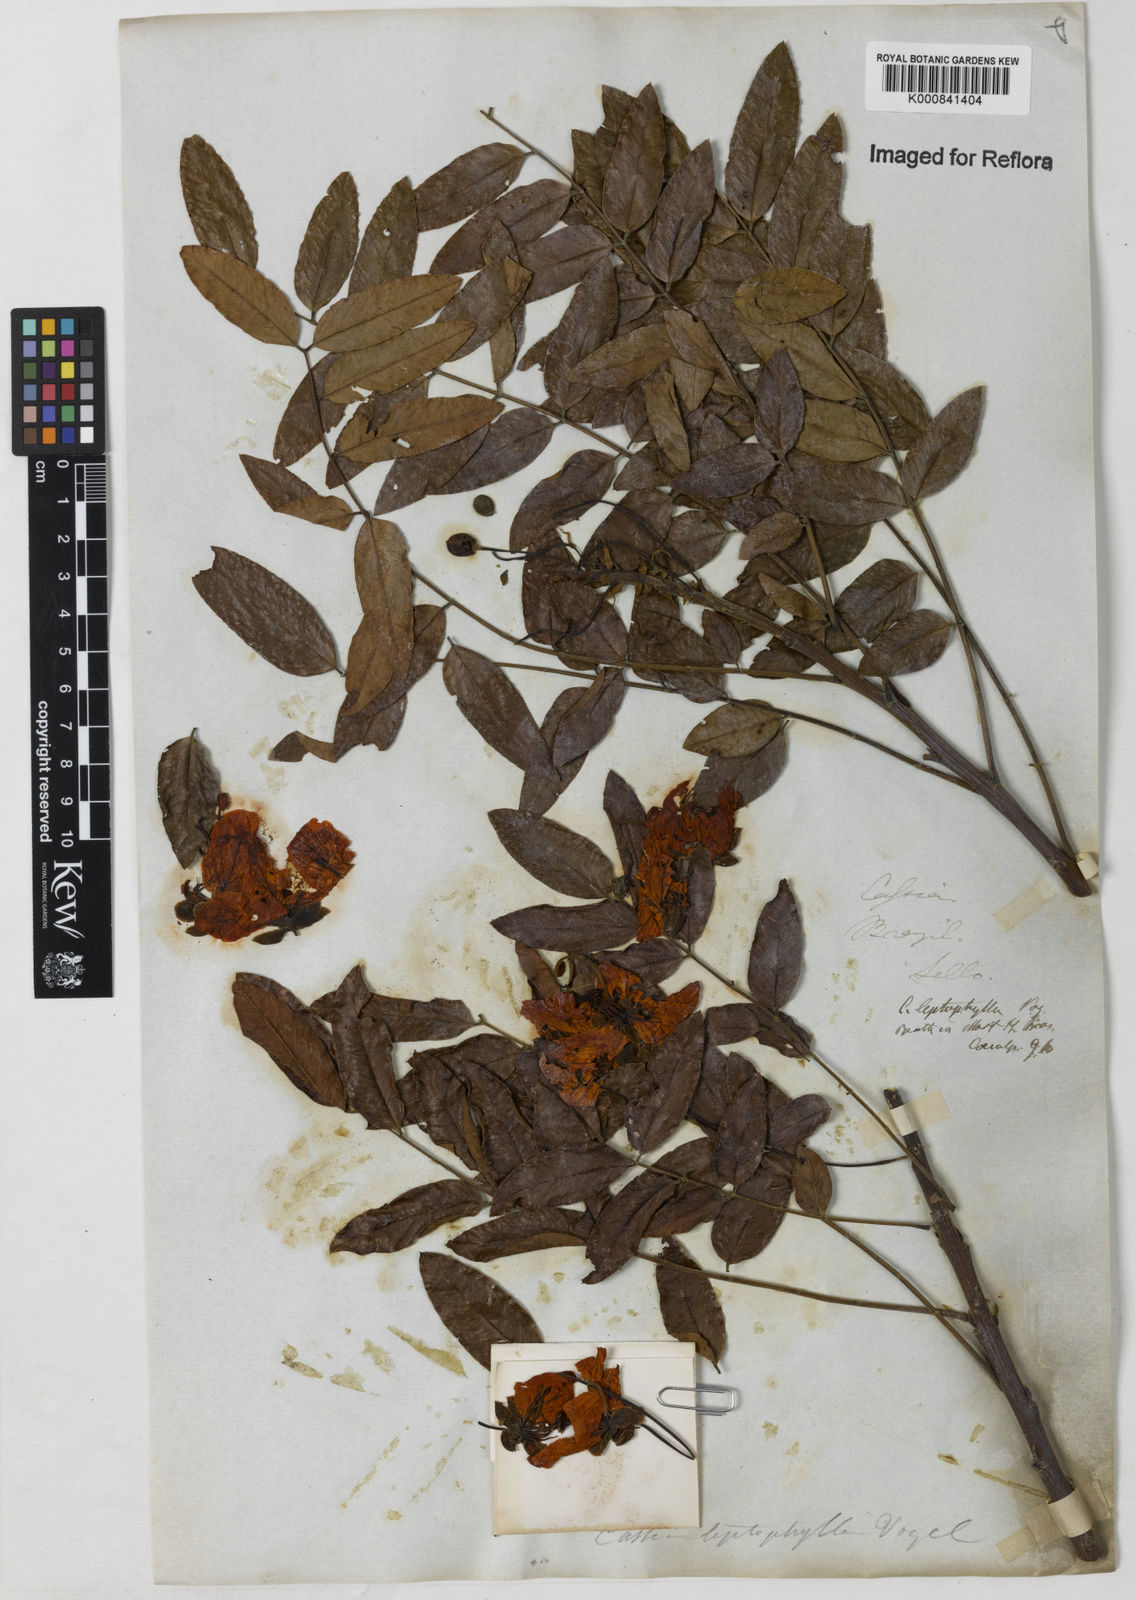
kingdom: Plantae
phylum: Tracheophyta
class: Magnoliopsida
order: Fabales
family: Fabaceae
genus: Cassia
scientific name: Cassia leptophylla
